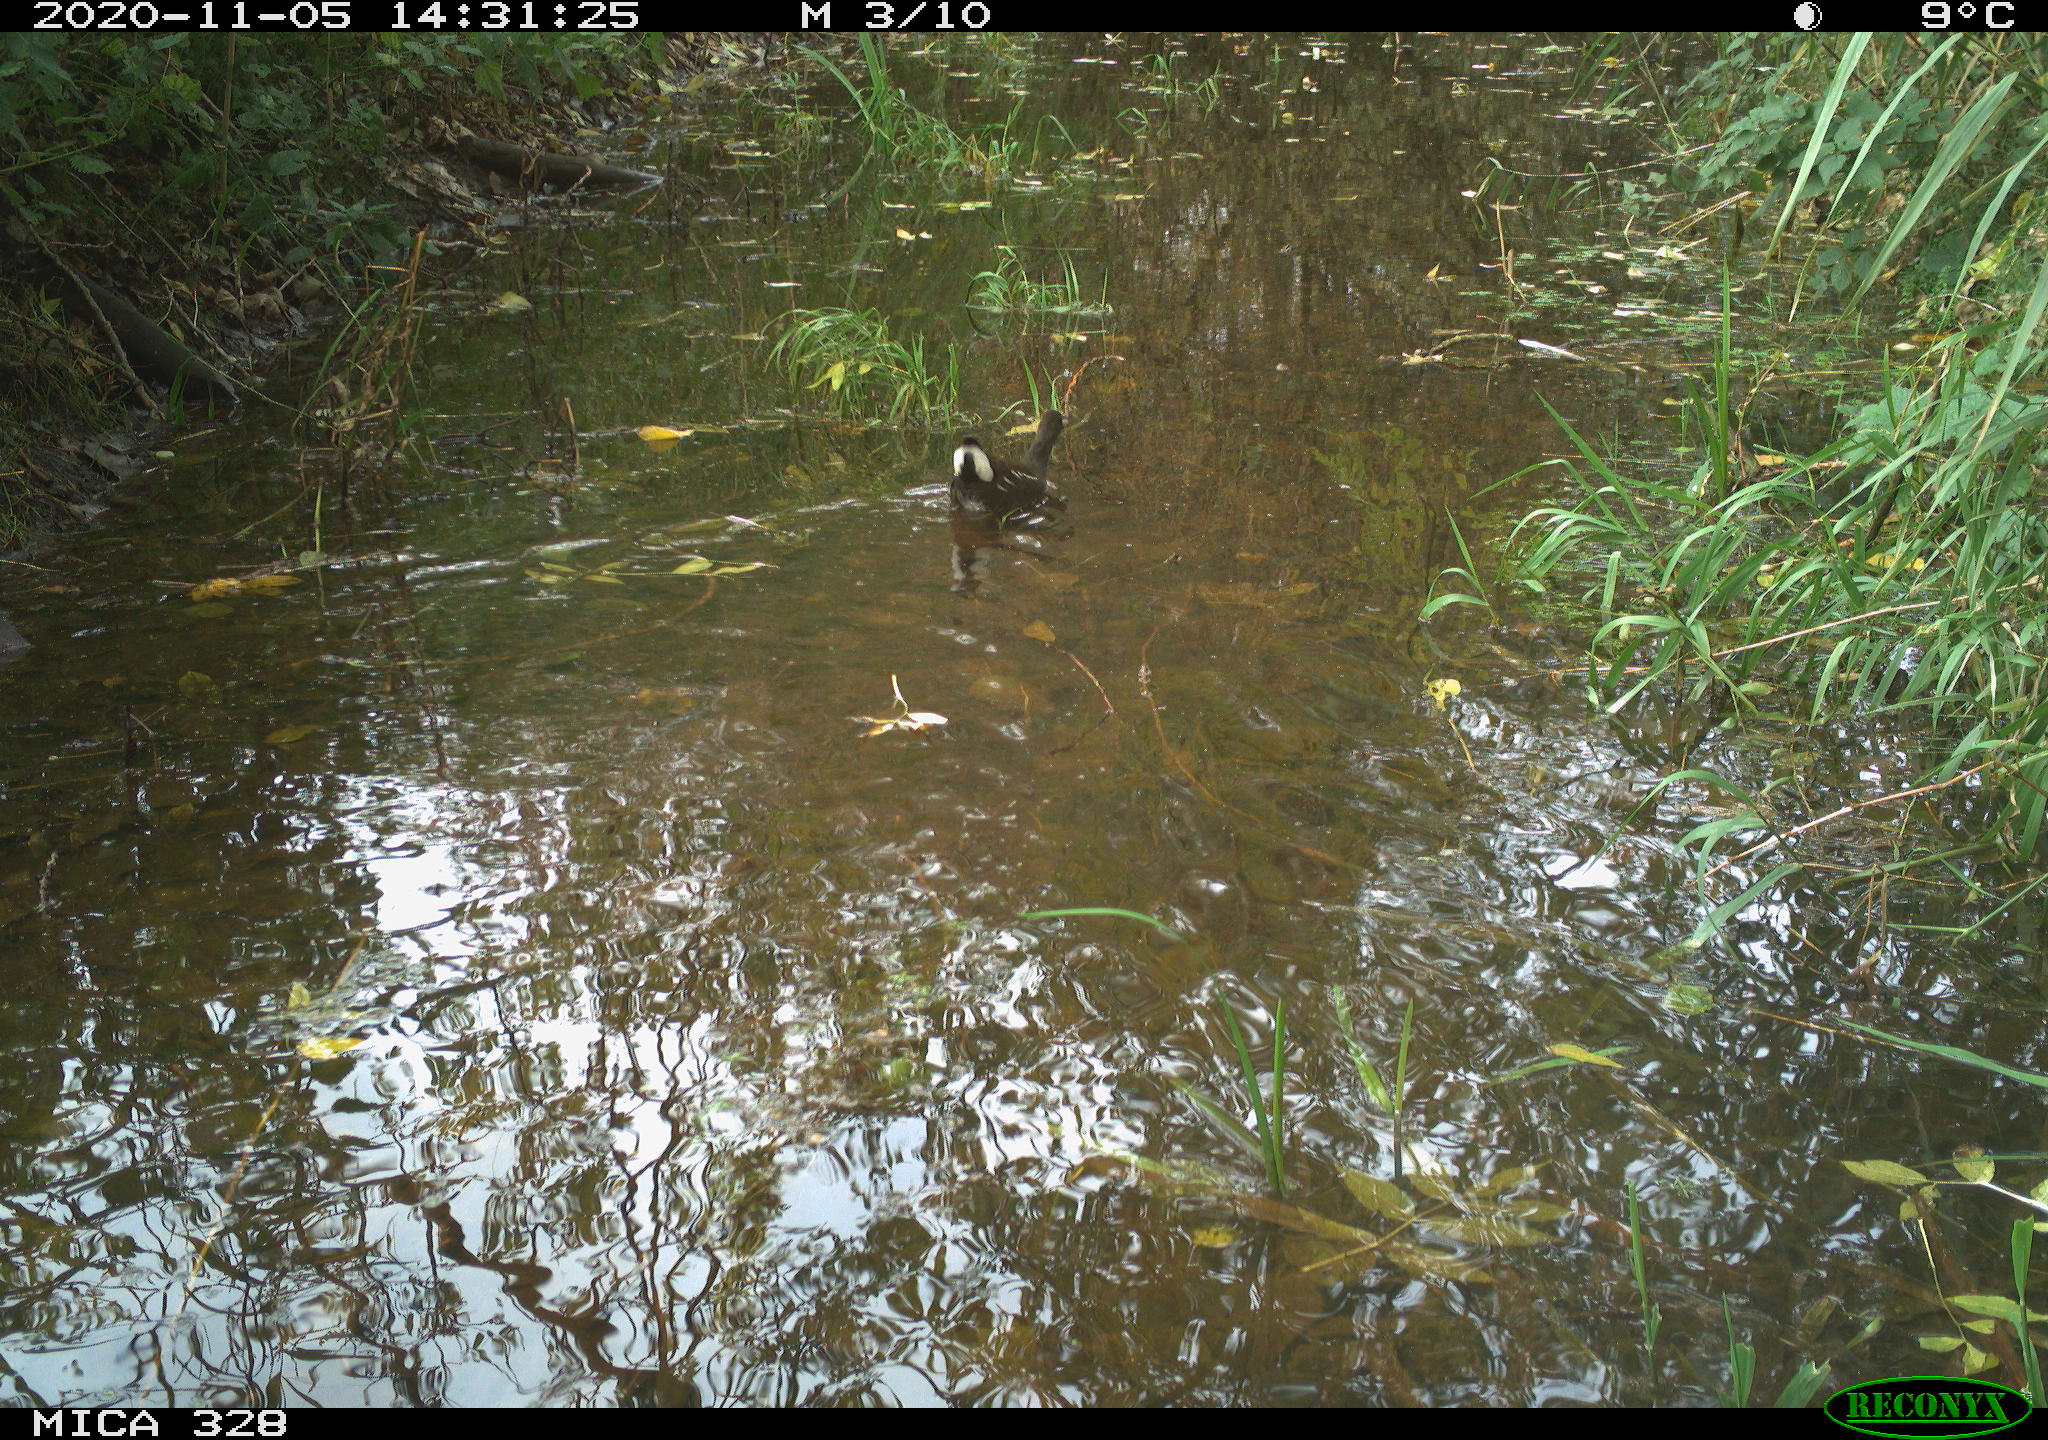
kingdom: Animalia
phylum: Chordata
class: Aves
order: Gruiformes
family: Rallidae
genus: Gallinula
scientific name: Gallinula chloropus
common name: Common moorhen
